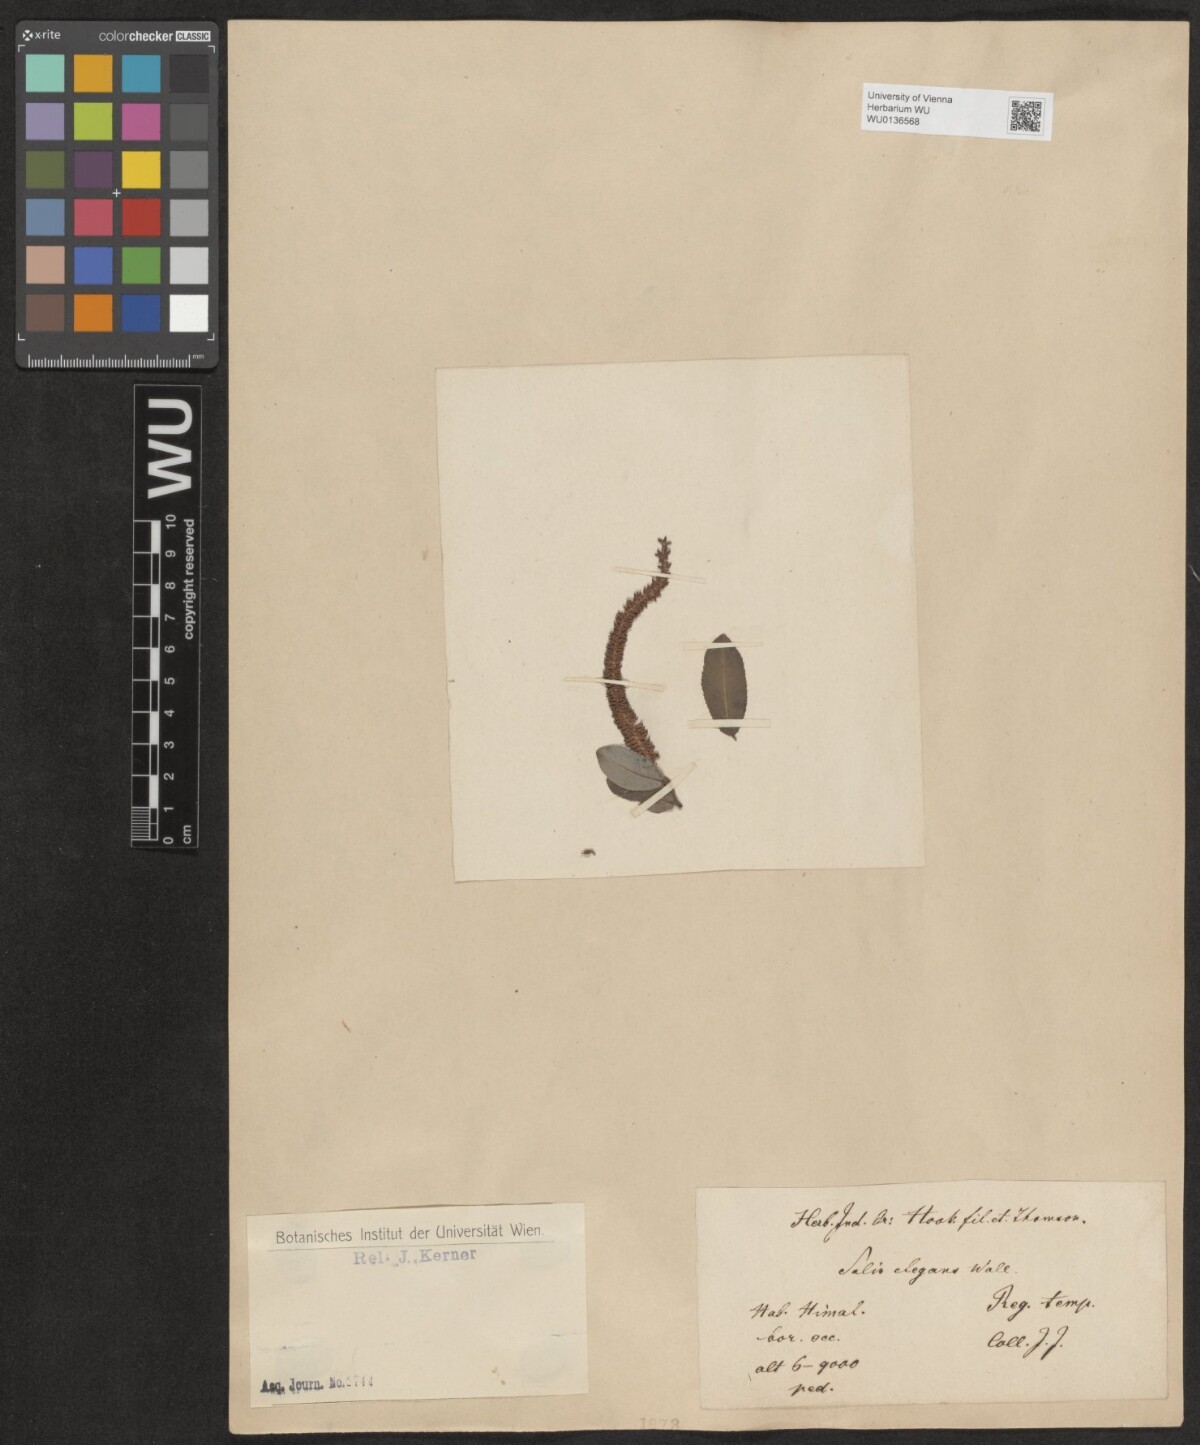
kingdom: Plantae
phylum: Tracheophyta
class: Magnoliopsida
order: Malpighiales
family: Salicaceae
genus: Salix
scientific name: Salix hastata
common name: Halberd willow
